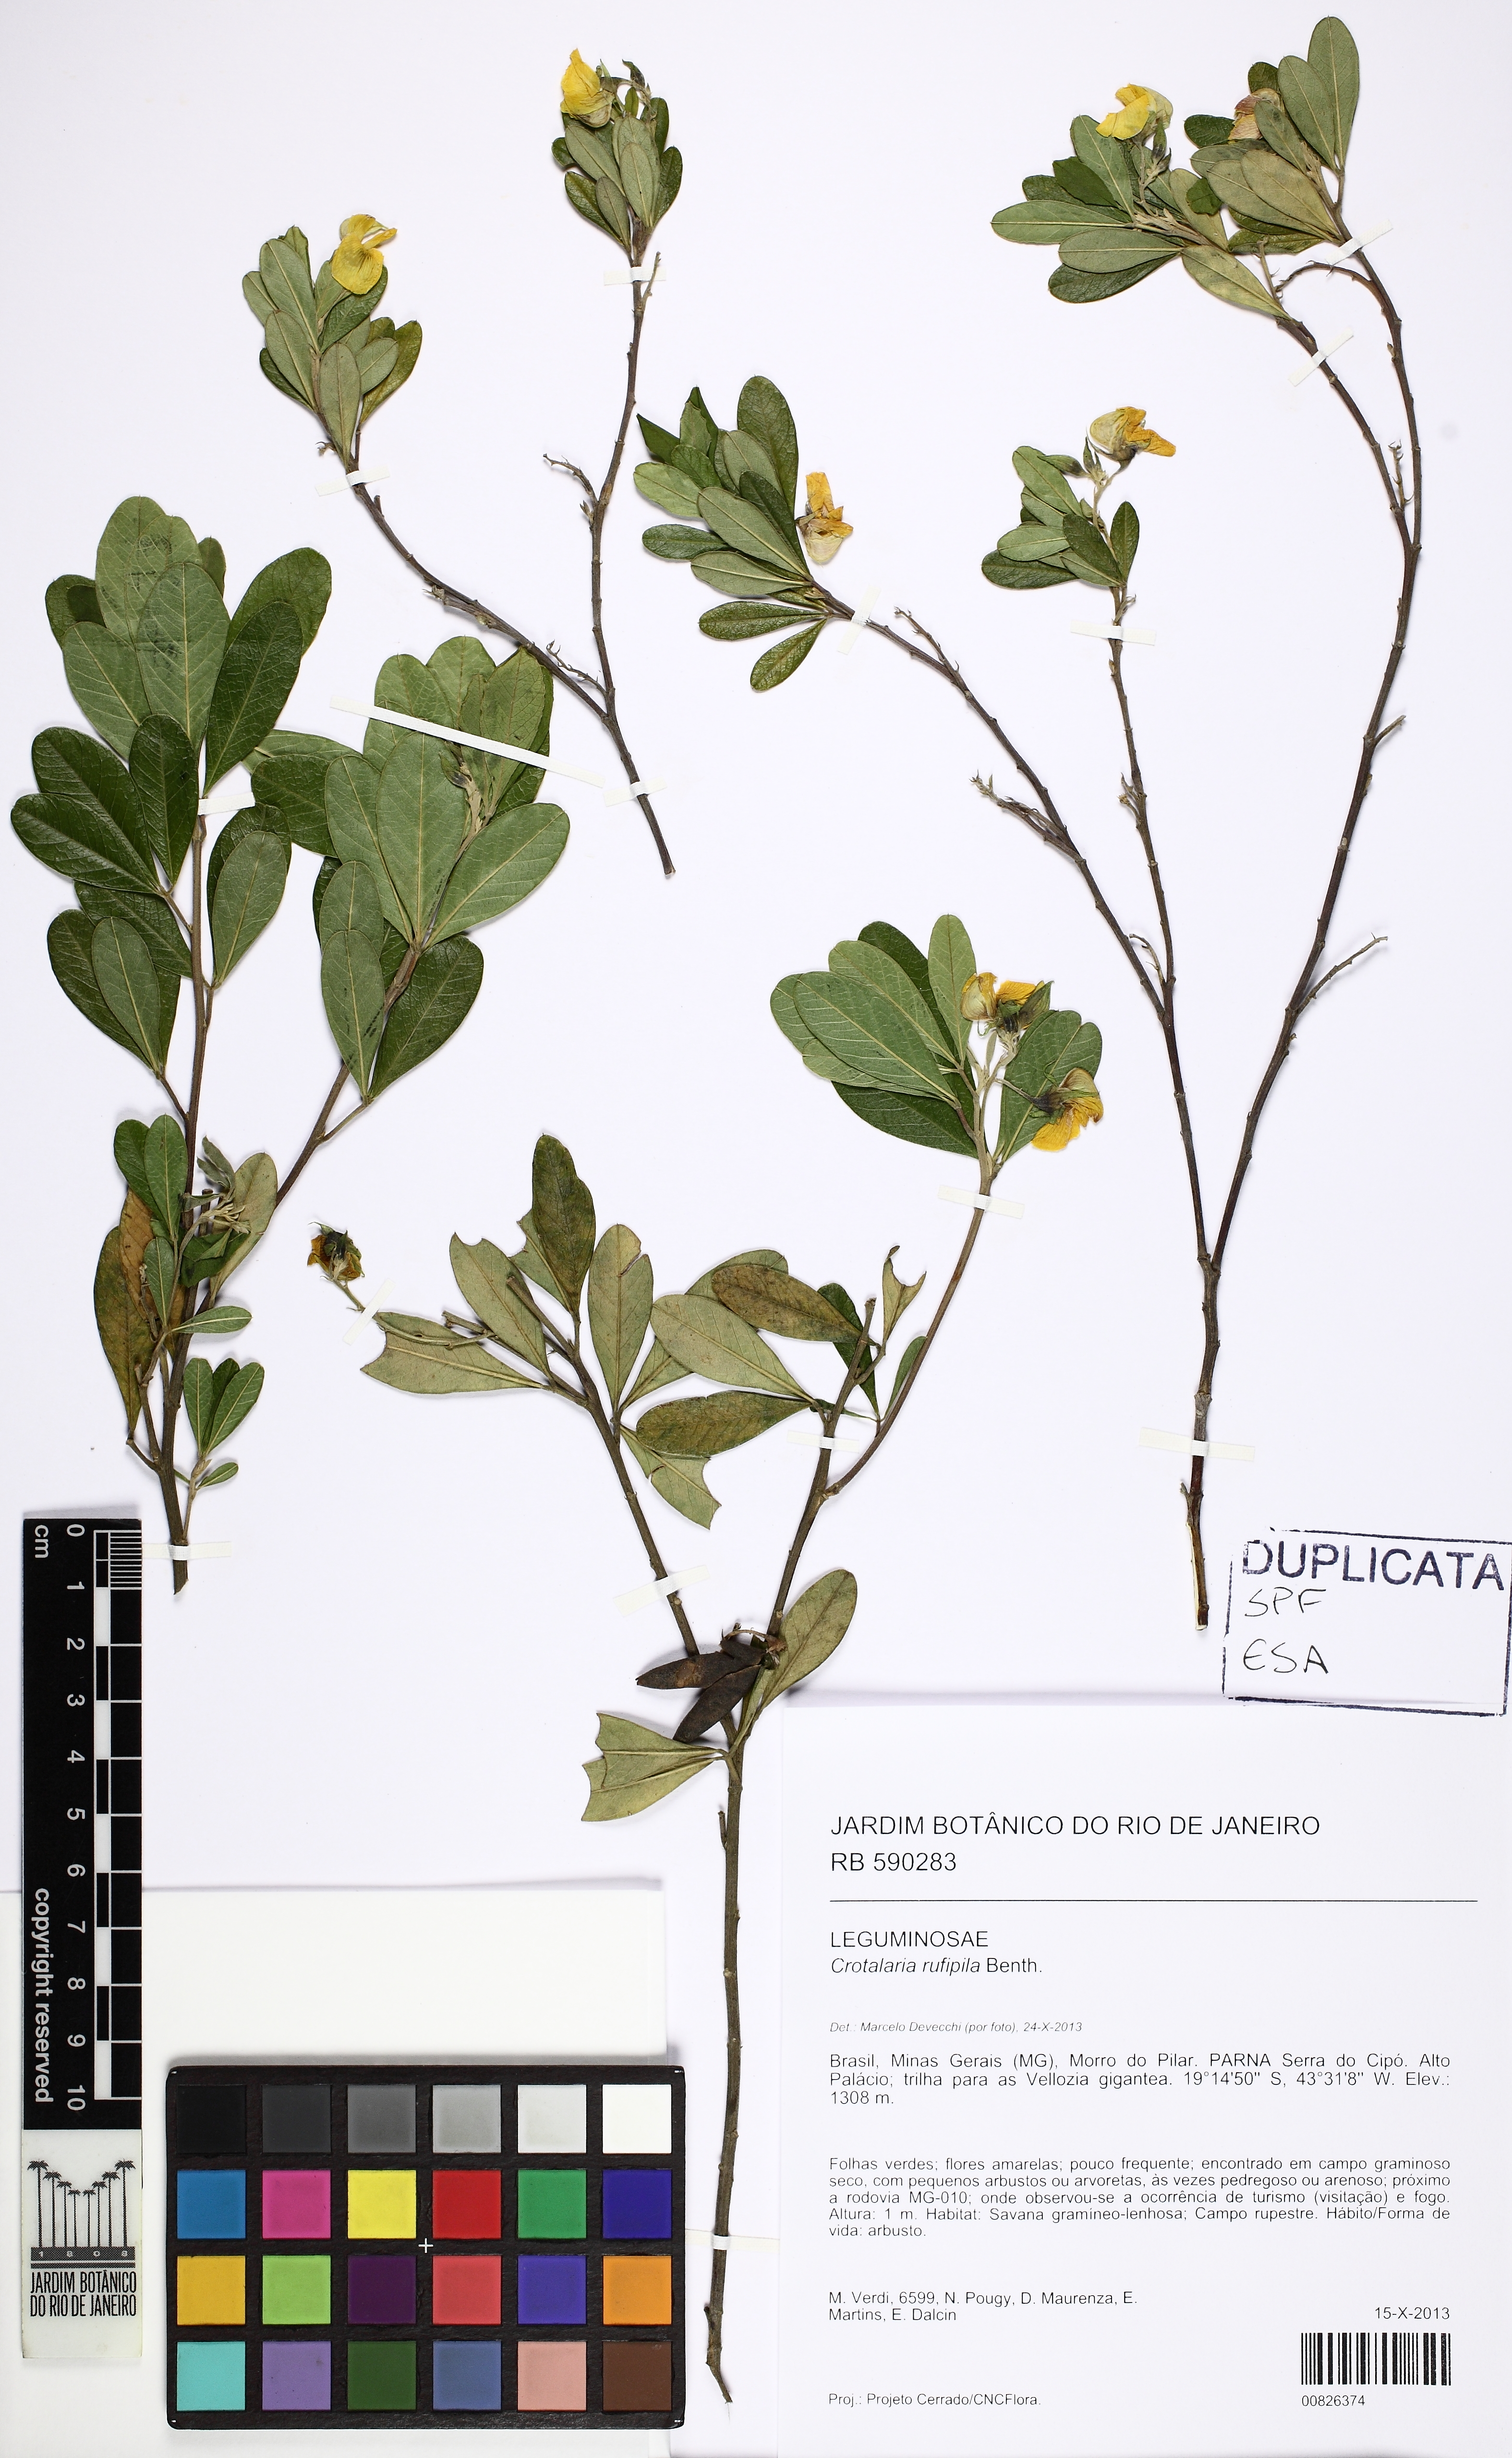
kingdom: Plantae
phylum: Tracheophyta
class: Magnoliopsida
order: Fabales
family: Fabaceae
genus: Crotalaria
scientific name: Crotalaria rufipila
